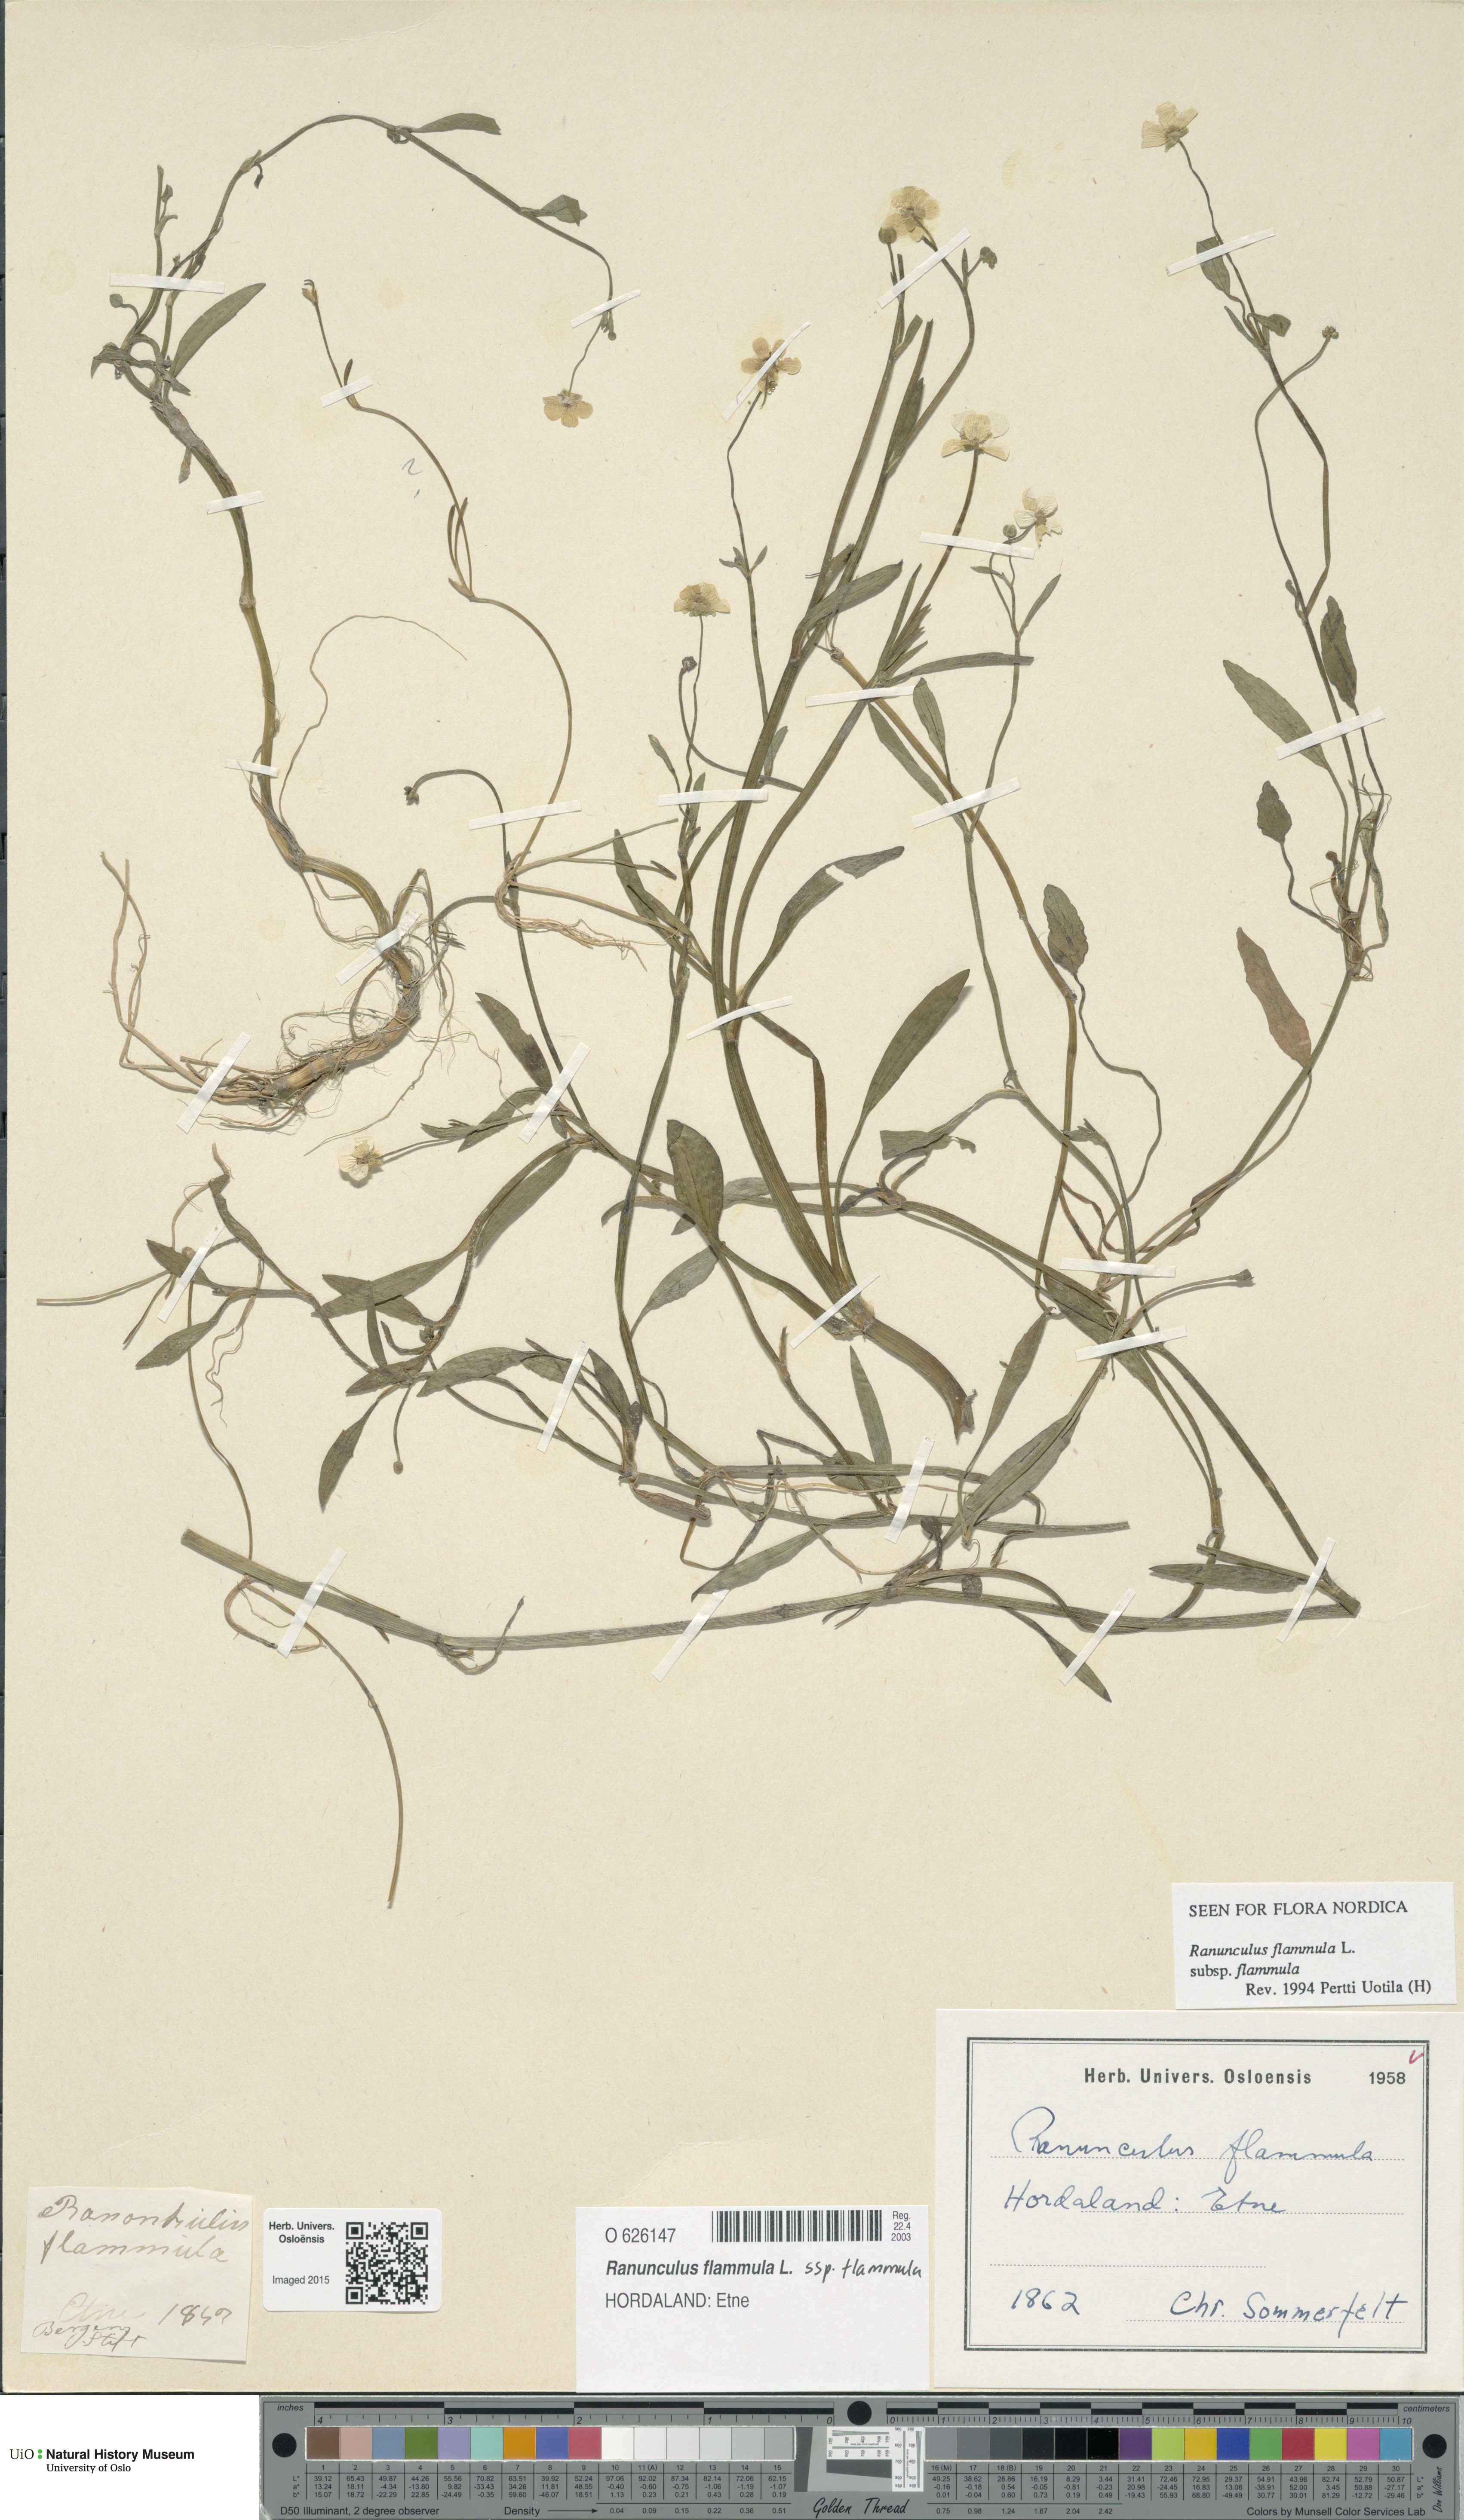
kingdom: Plantae
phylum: Tracheophyta
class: Magnoliopsida
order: Ranunculales
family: Ranunculaceae
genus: Ranunculus
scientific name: Ranunculus flammula
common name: Lesser spearwort
